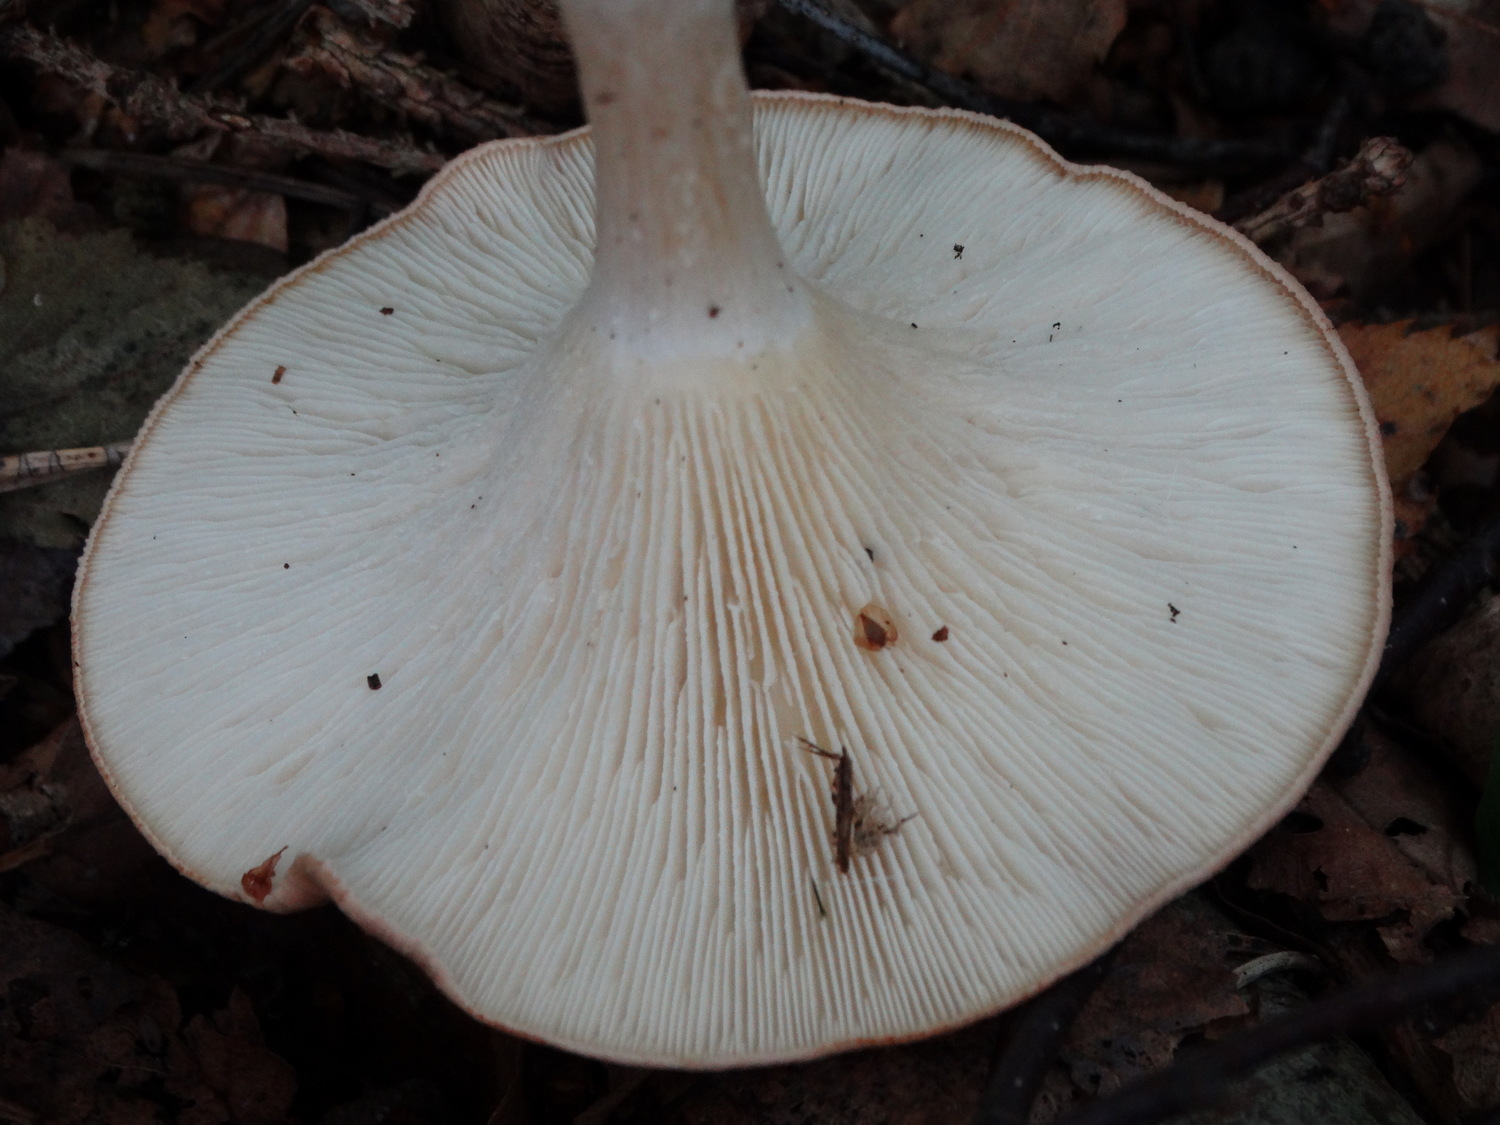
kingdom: Fungi
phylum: Basidiomycota
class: Agaricomycetes
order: Agaricales
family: Tricholomataceae
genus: Infundibulicybe
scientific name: Infundibulicybe gibba
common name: almindelig tragthat
